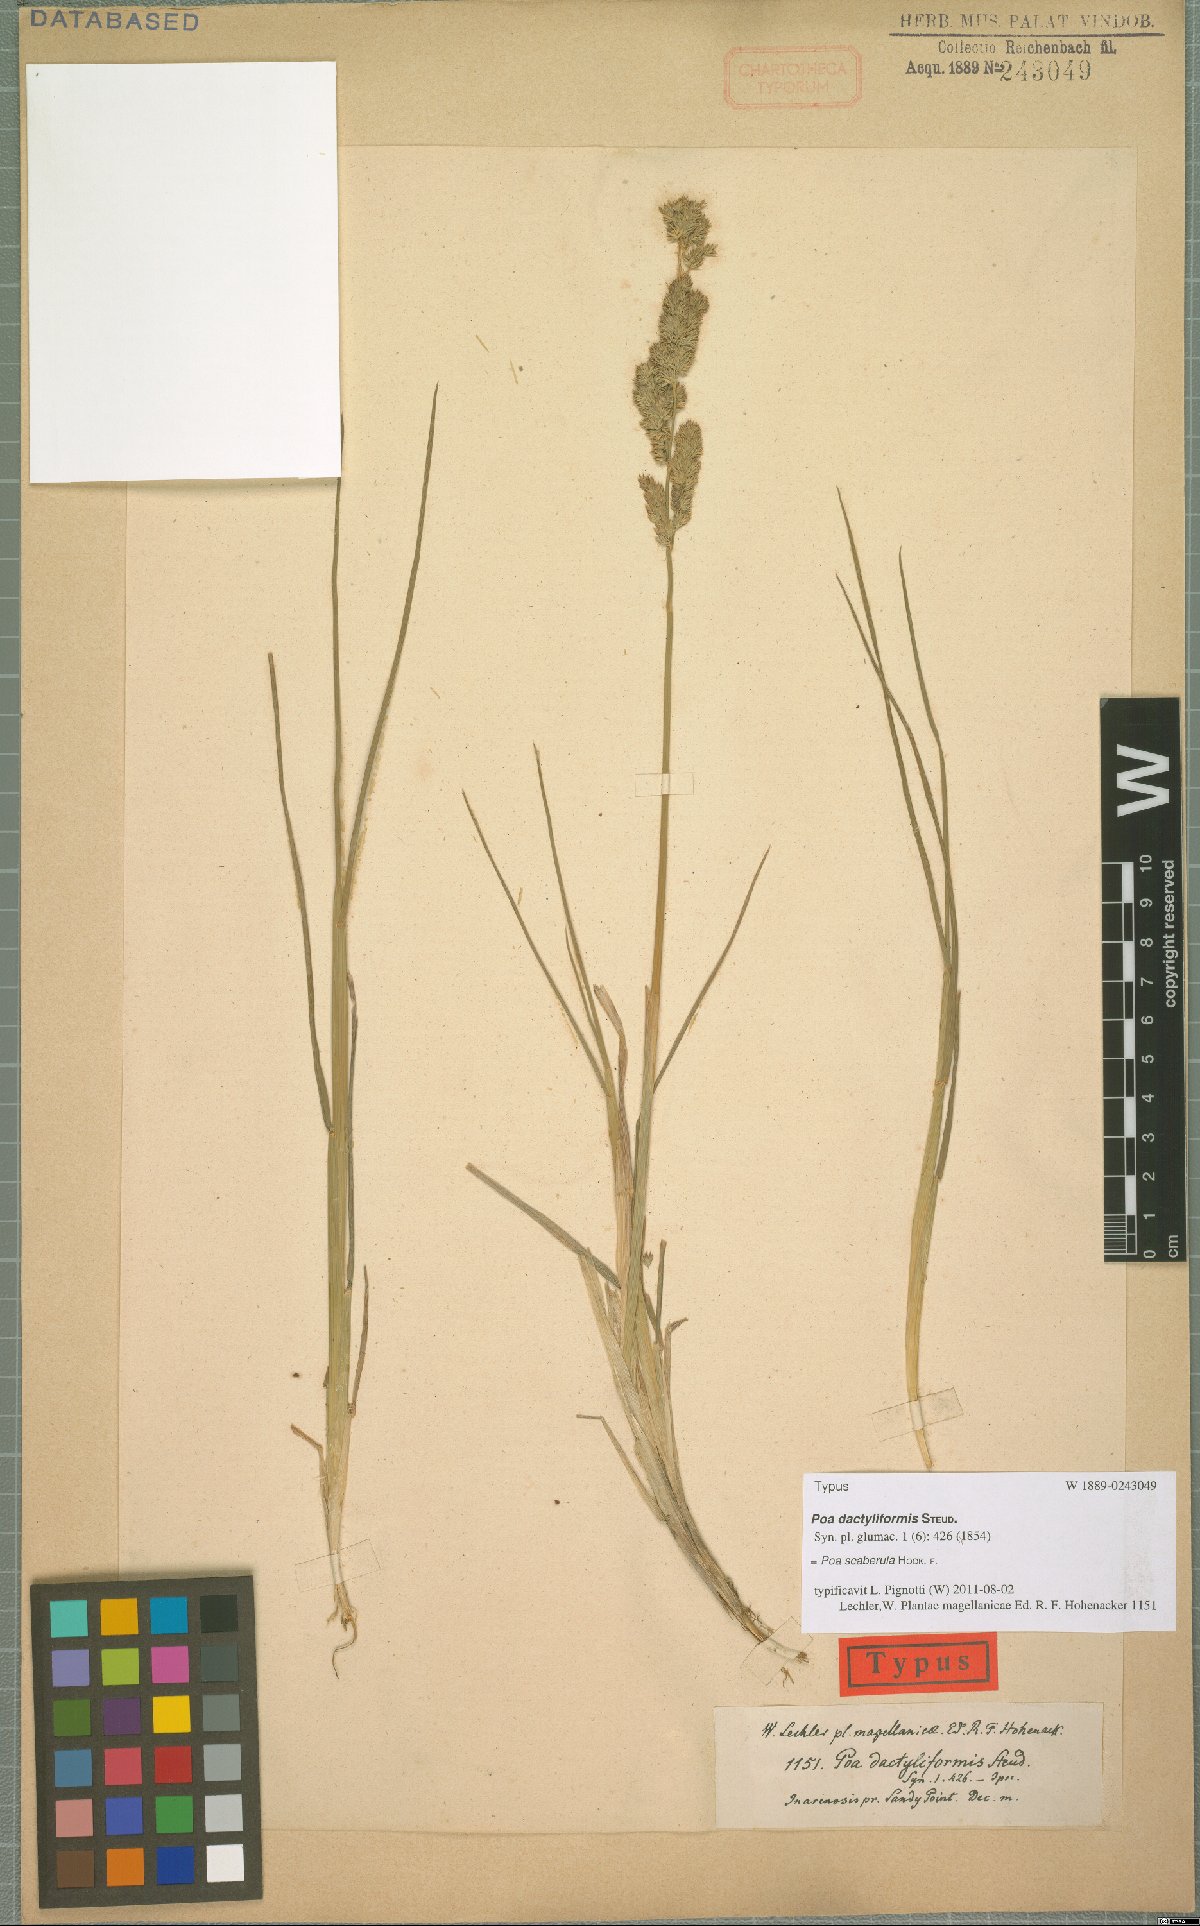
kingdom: Plantae
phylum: Tracheophyta
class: Liliopsida
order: Poales
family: Poaceae
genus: Poa
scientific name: Poa scaberula
